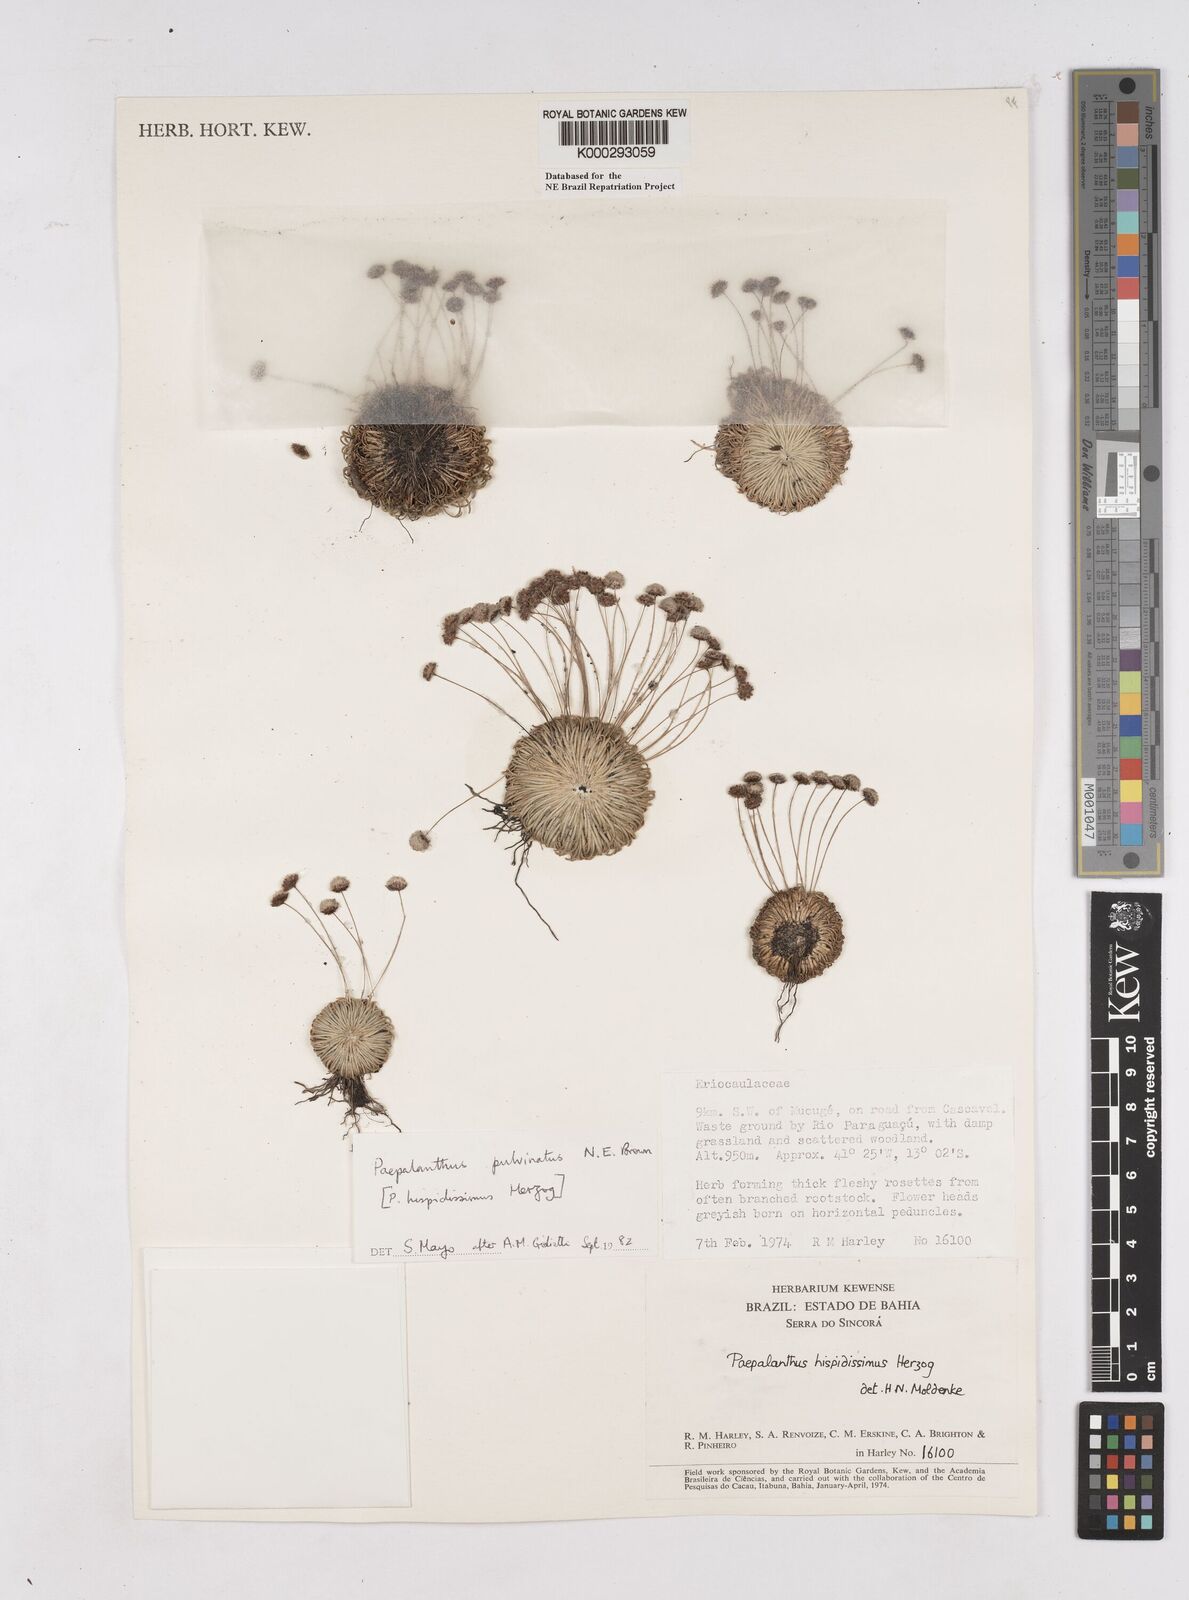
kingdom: Plantae
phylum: Tracheophyta
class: Liliopsida
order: Poales
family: Eriocaulaceae
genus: Paepalanthus
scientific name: Paepalanthus pulvinatus
